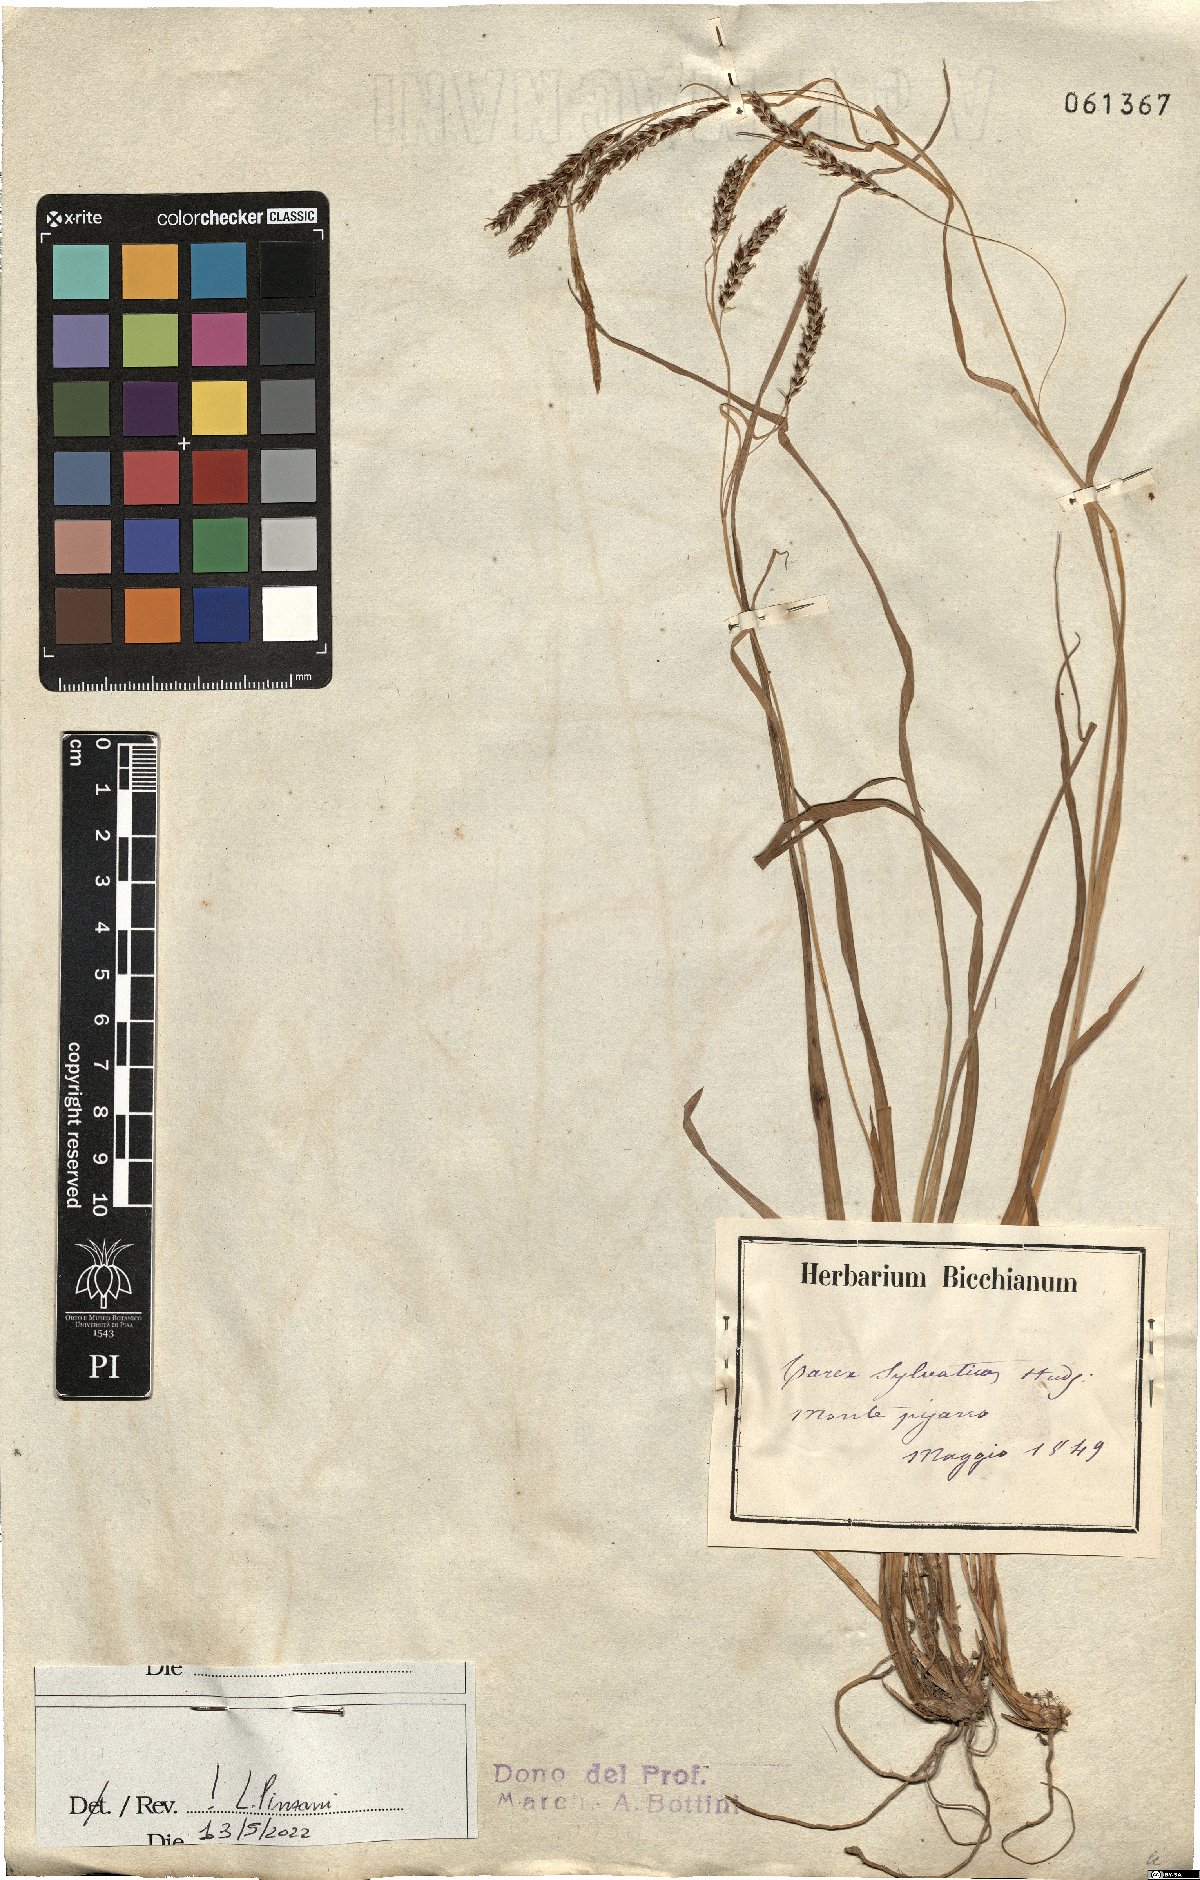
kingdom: Plantae
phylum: Tracheophyta
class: Liliopsida
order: Poales
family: Cyperaceae
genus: Carex
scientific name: Carex sylvatica
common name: Wood-sedge
